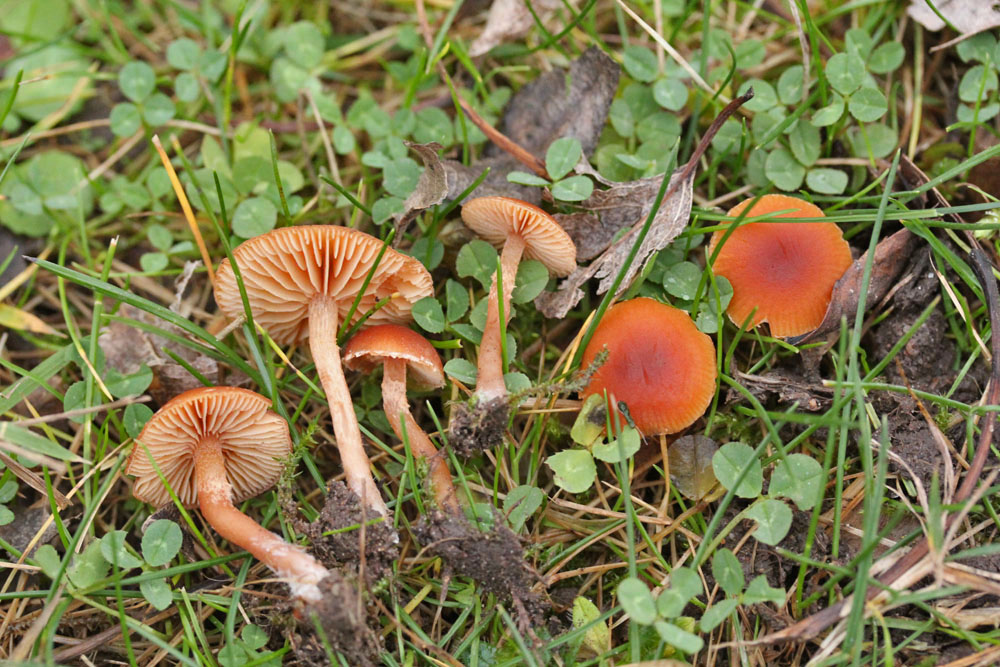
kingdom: Fungi
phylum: Basidiomycota
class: Agaricomycetes
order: Agaricales
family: Tubariaceae
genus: Tubaria
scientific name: Tubaria furfuracea
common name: kliddet fnughat
